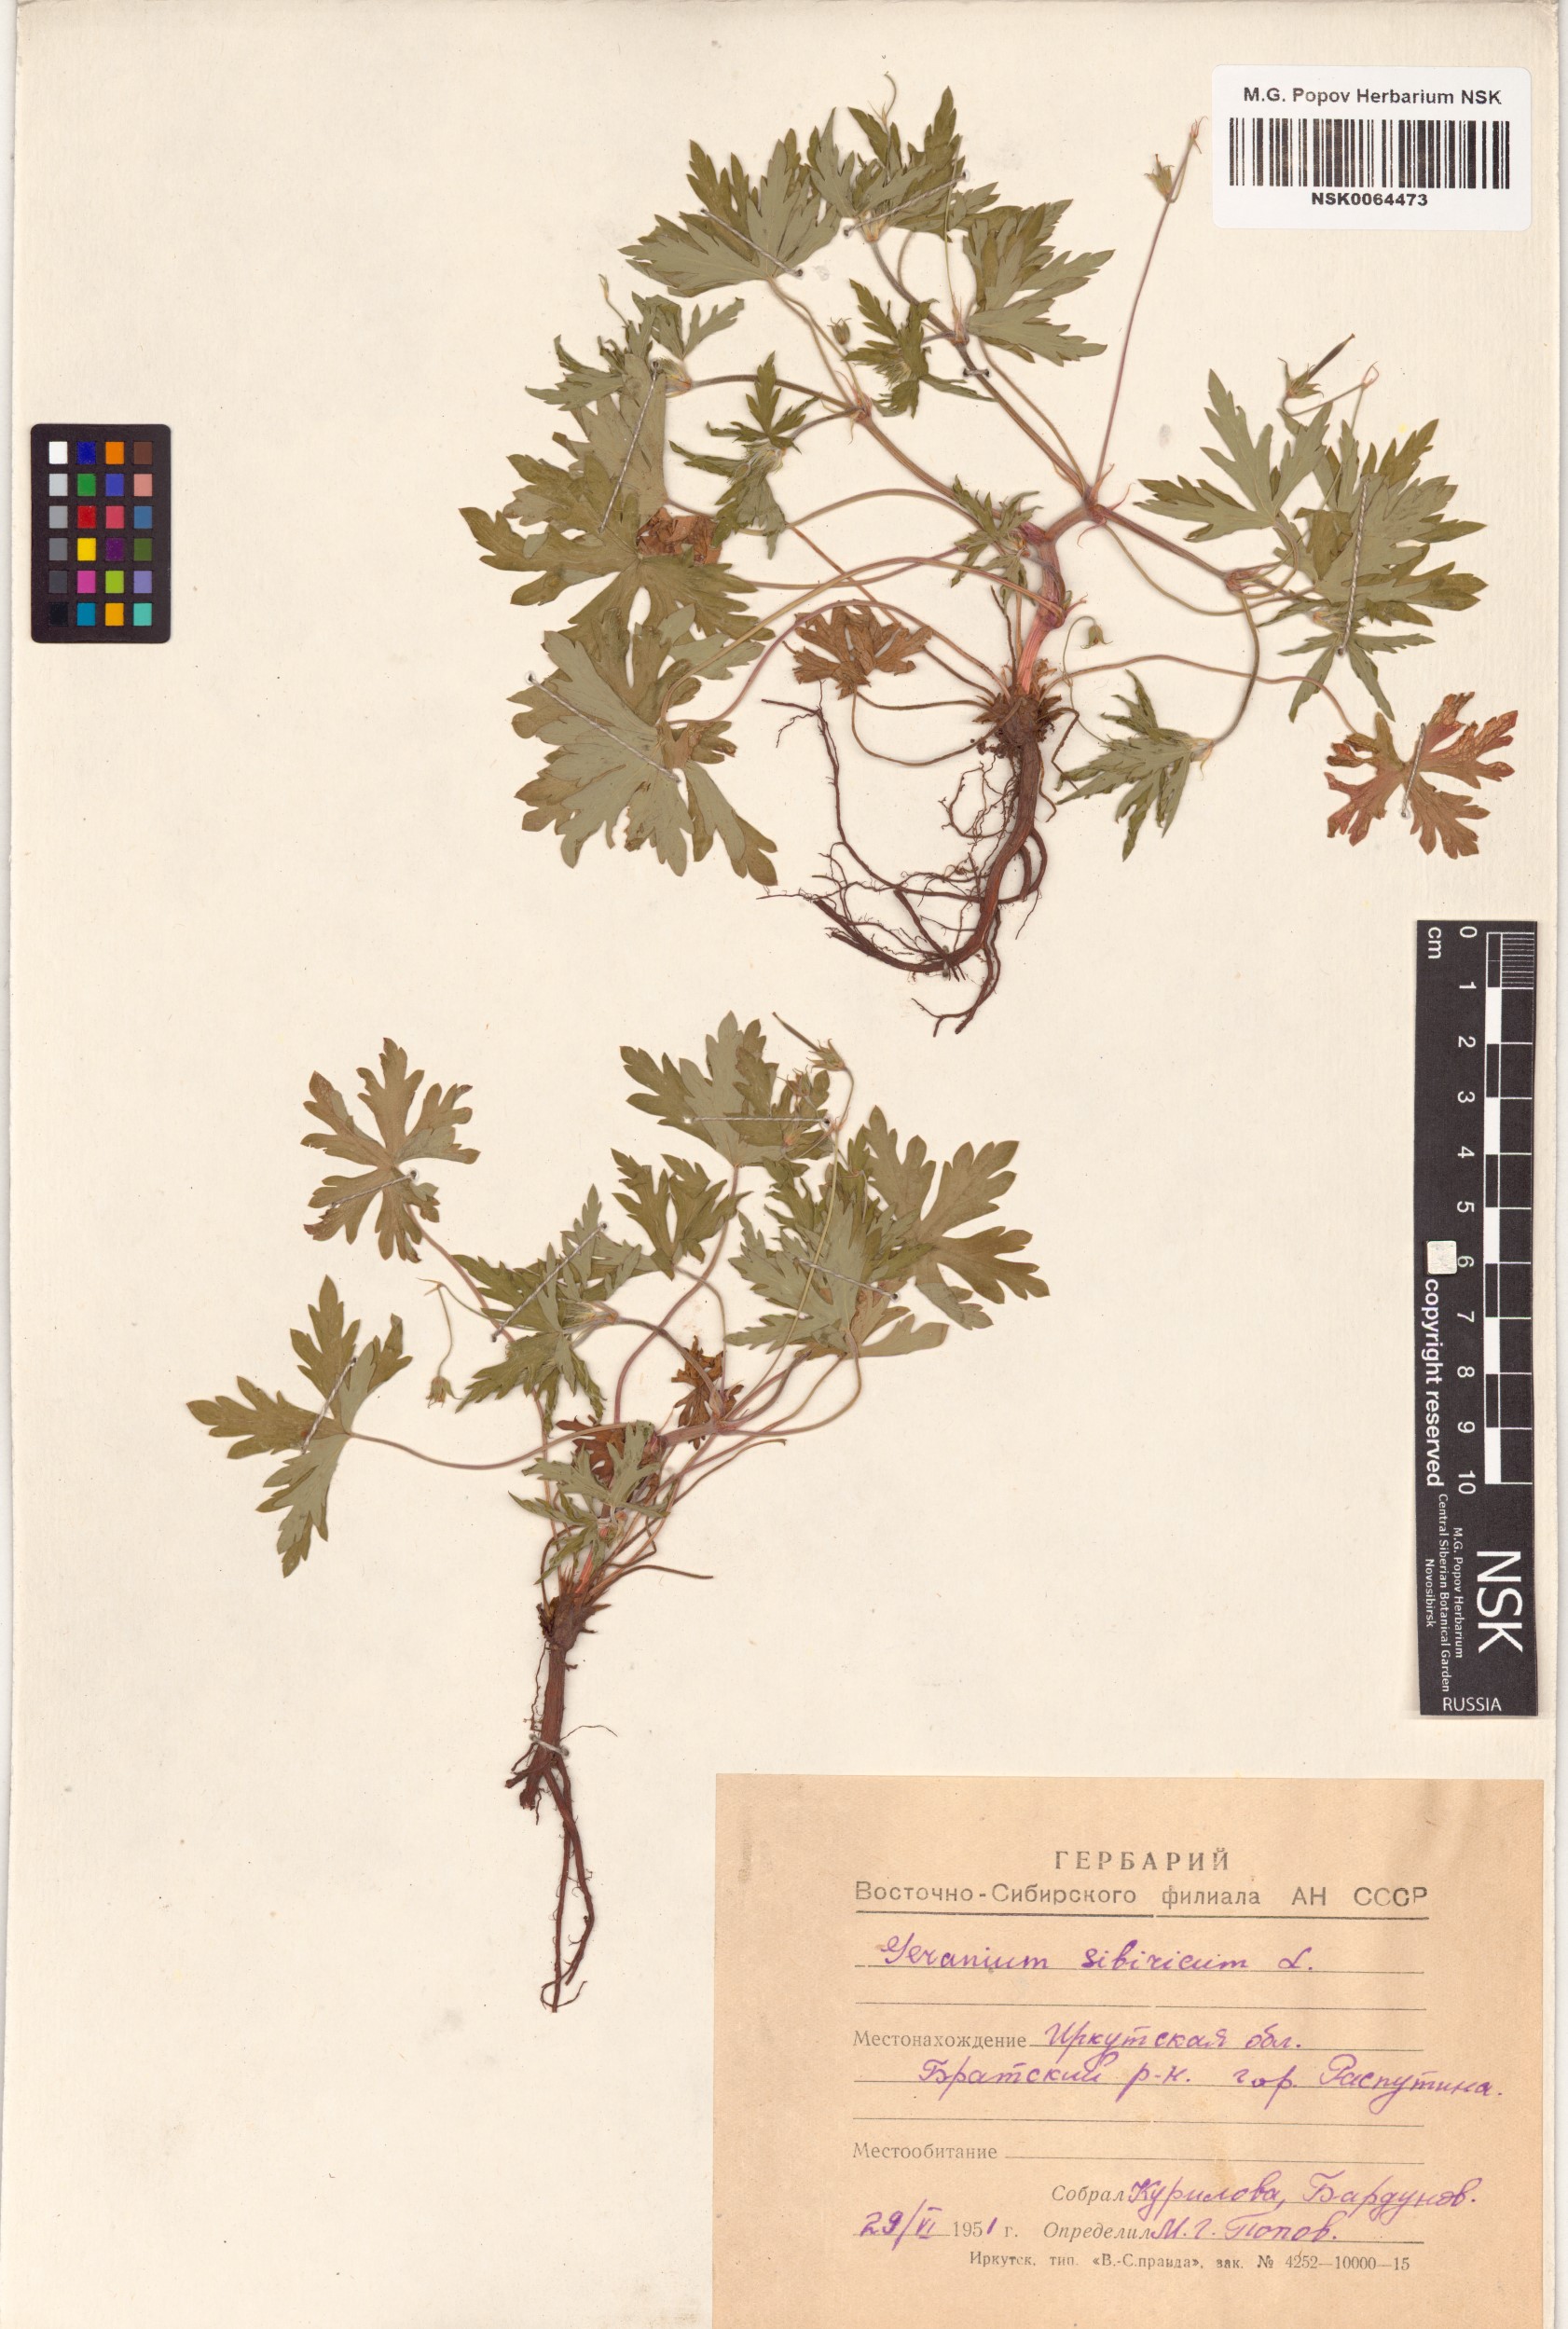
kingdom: Plantae
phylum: Tracheophyta
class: Magnoliopsida
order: Geraniales
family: Geraniaceae
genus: Geranium
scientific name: Geranium sibiricum
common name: Siberian crane's-bill
